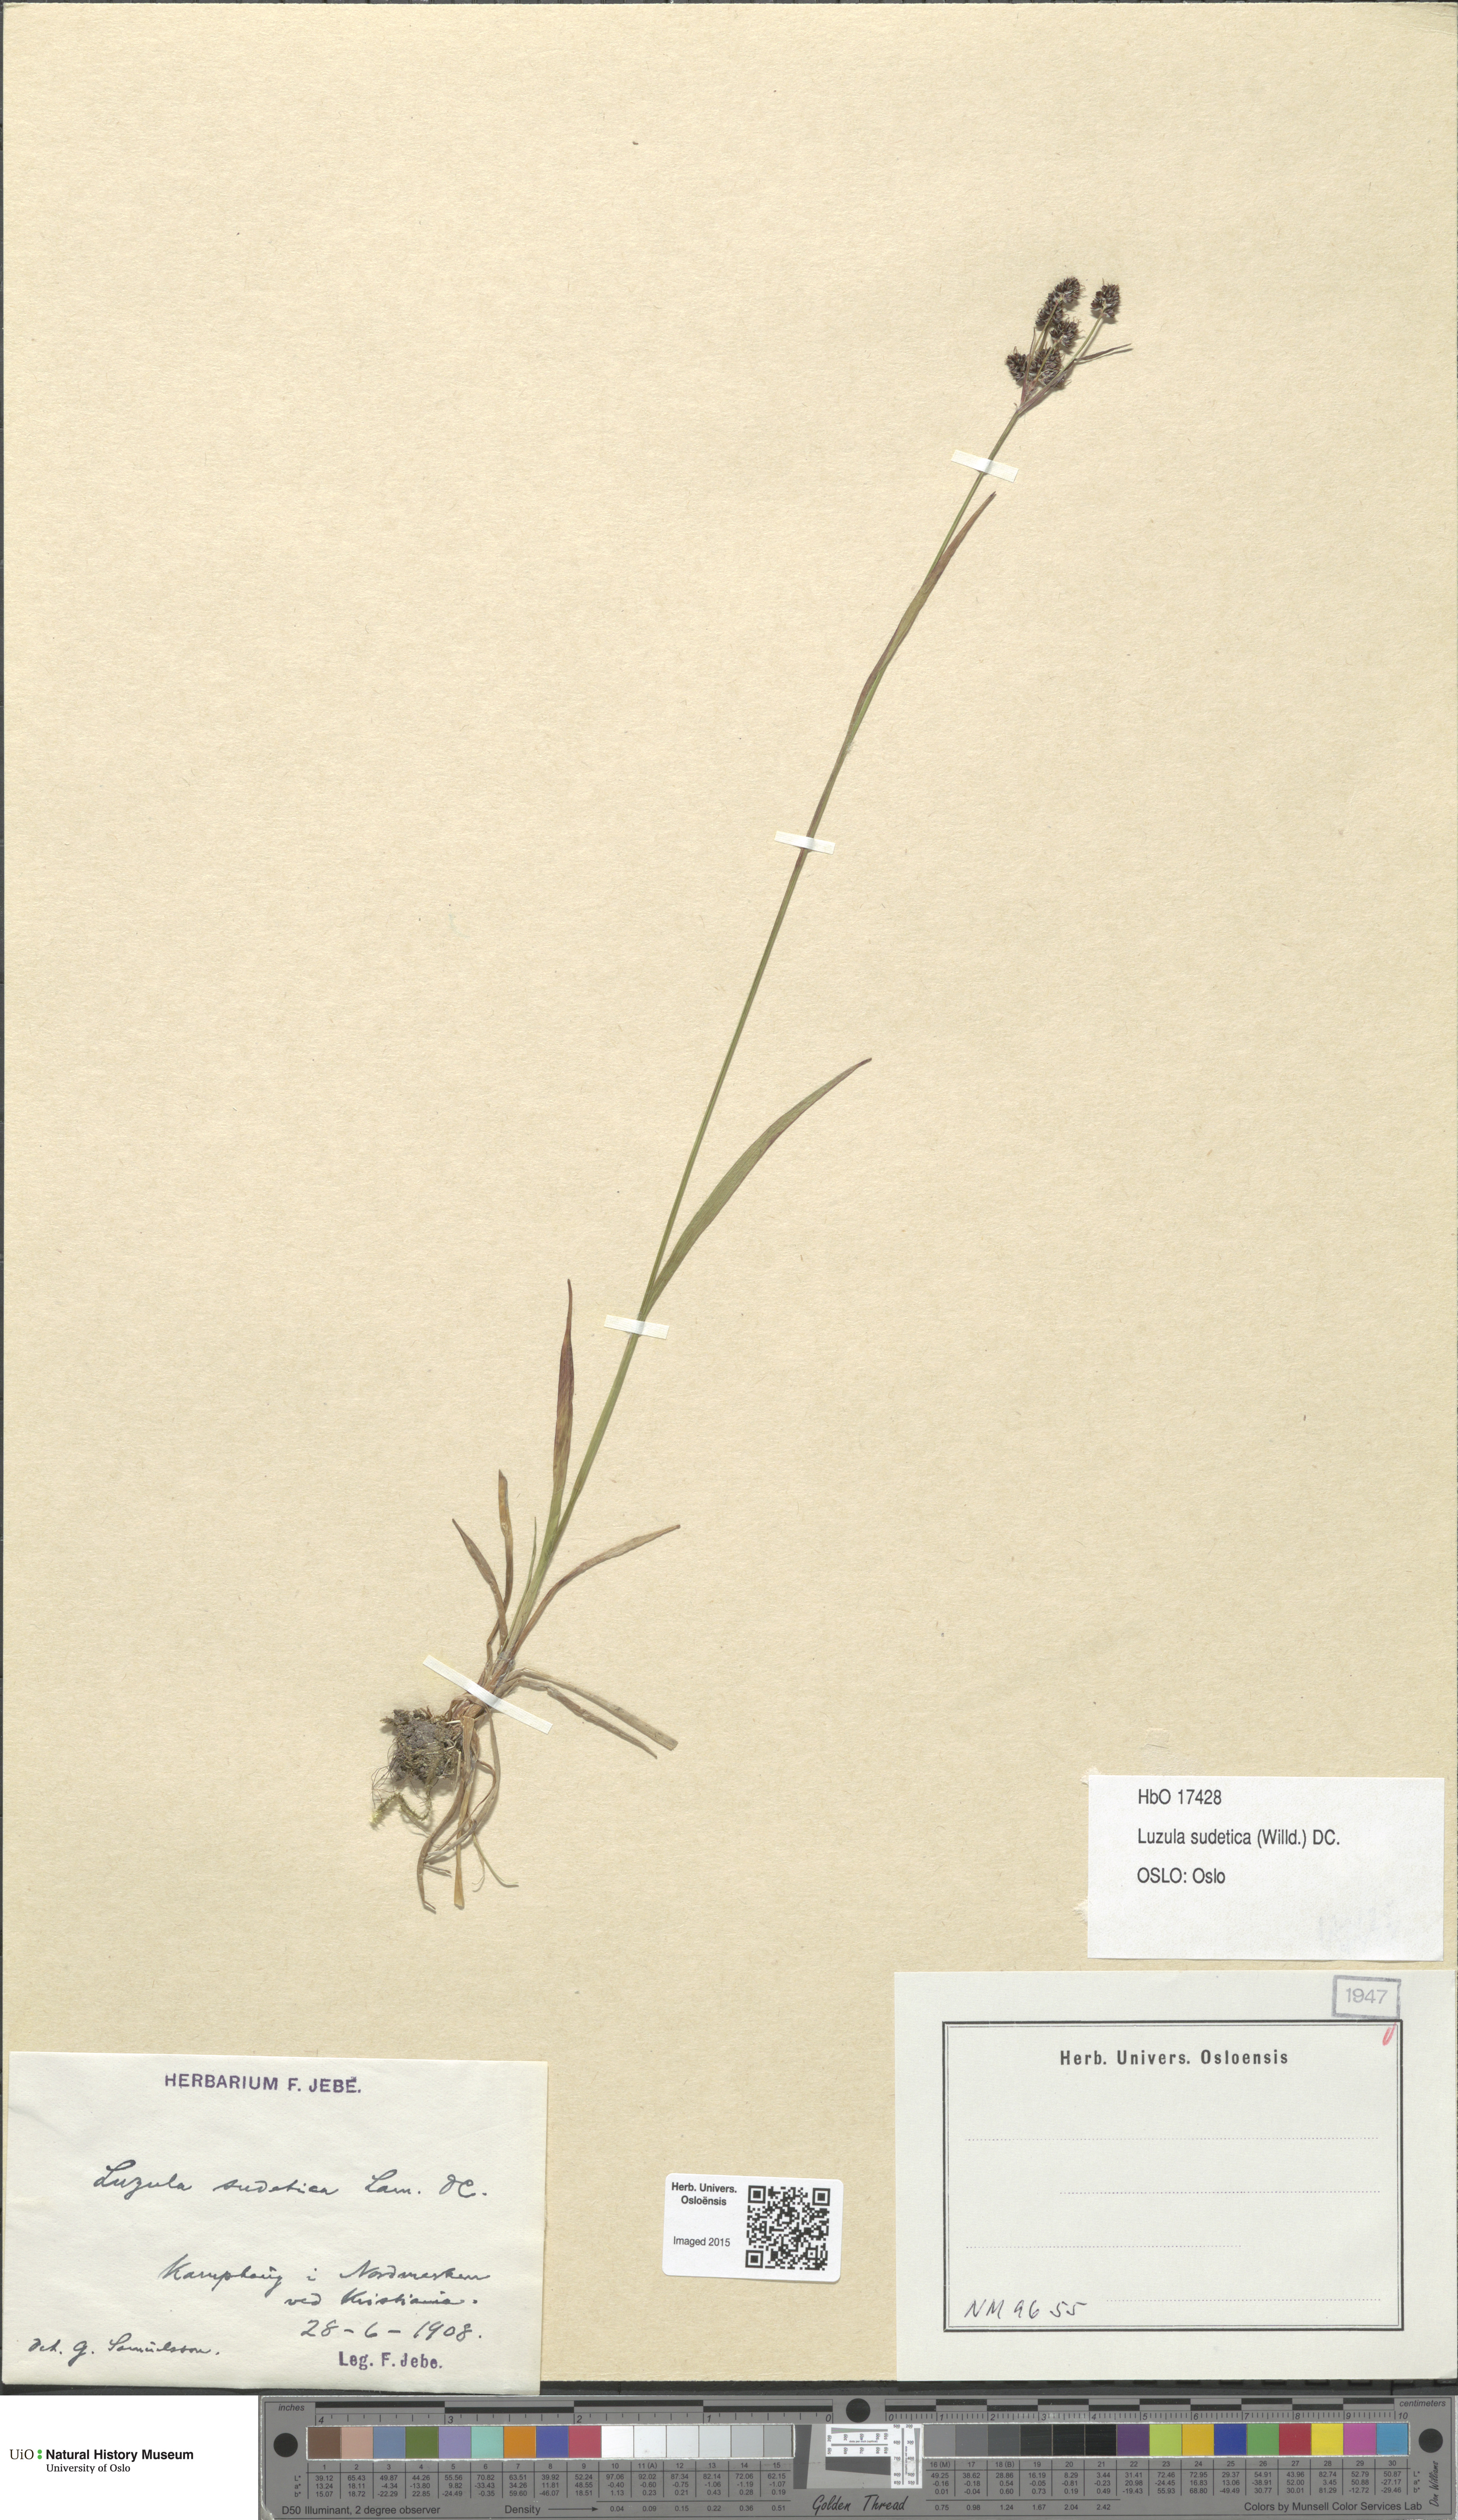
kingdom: Plantae
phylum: Tracheophyta
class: Liliopsida
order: Poales
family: Juncaceae
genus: Luzula
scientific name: Luzula sudetica
